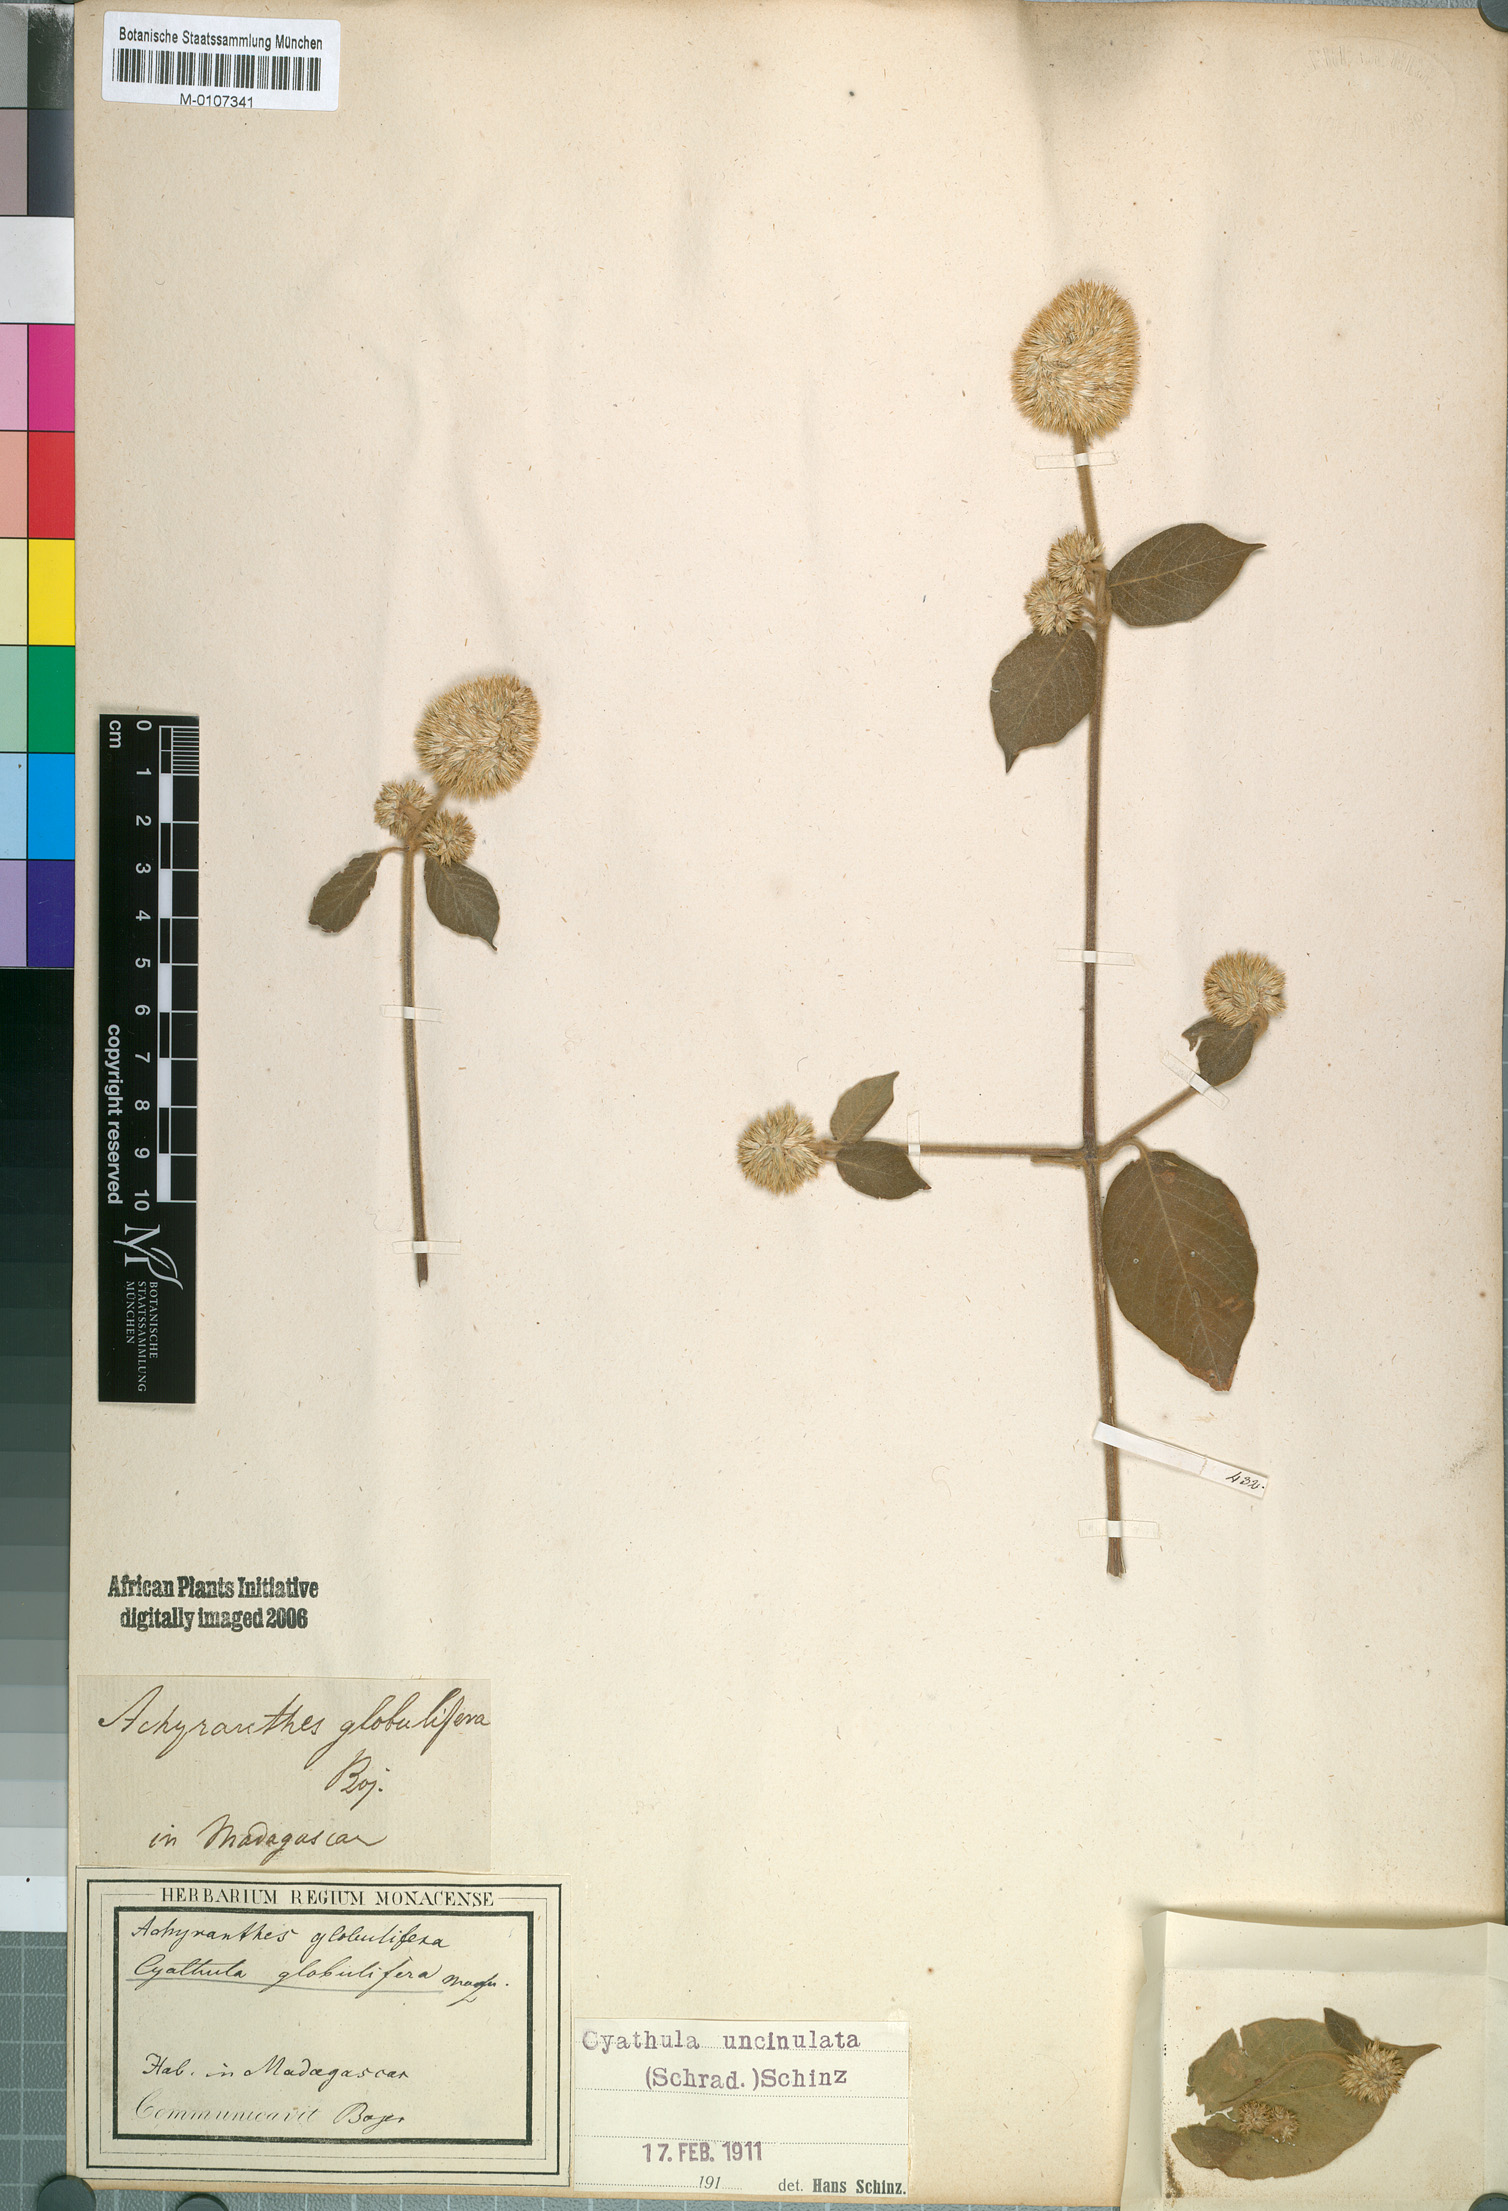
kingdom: Plantae
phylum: Tracheophyta
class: Magnoliopsida
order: Caryophyllales
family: Amaranthaceae
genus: Cyathula
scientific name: Cyathula uncinulata
